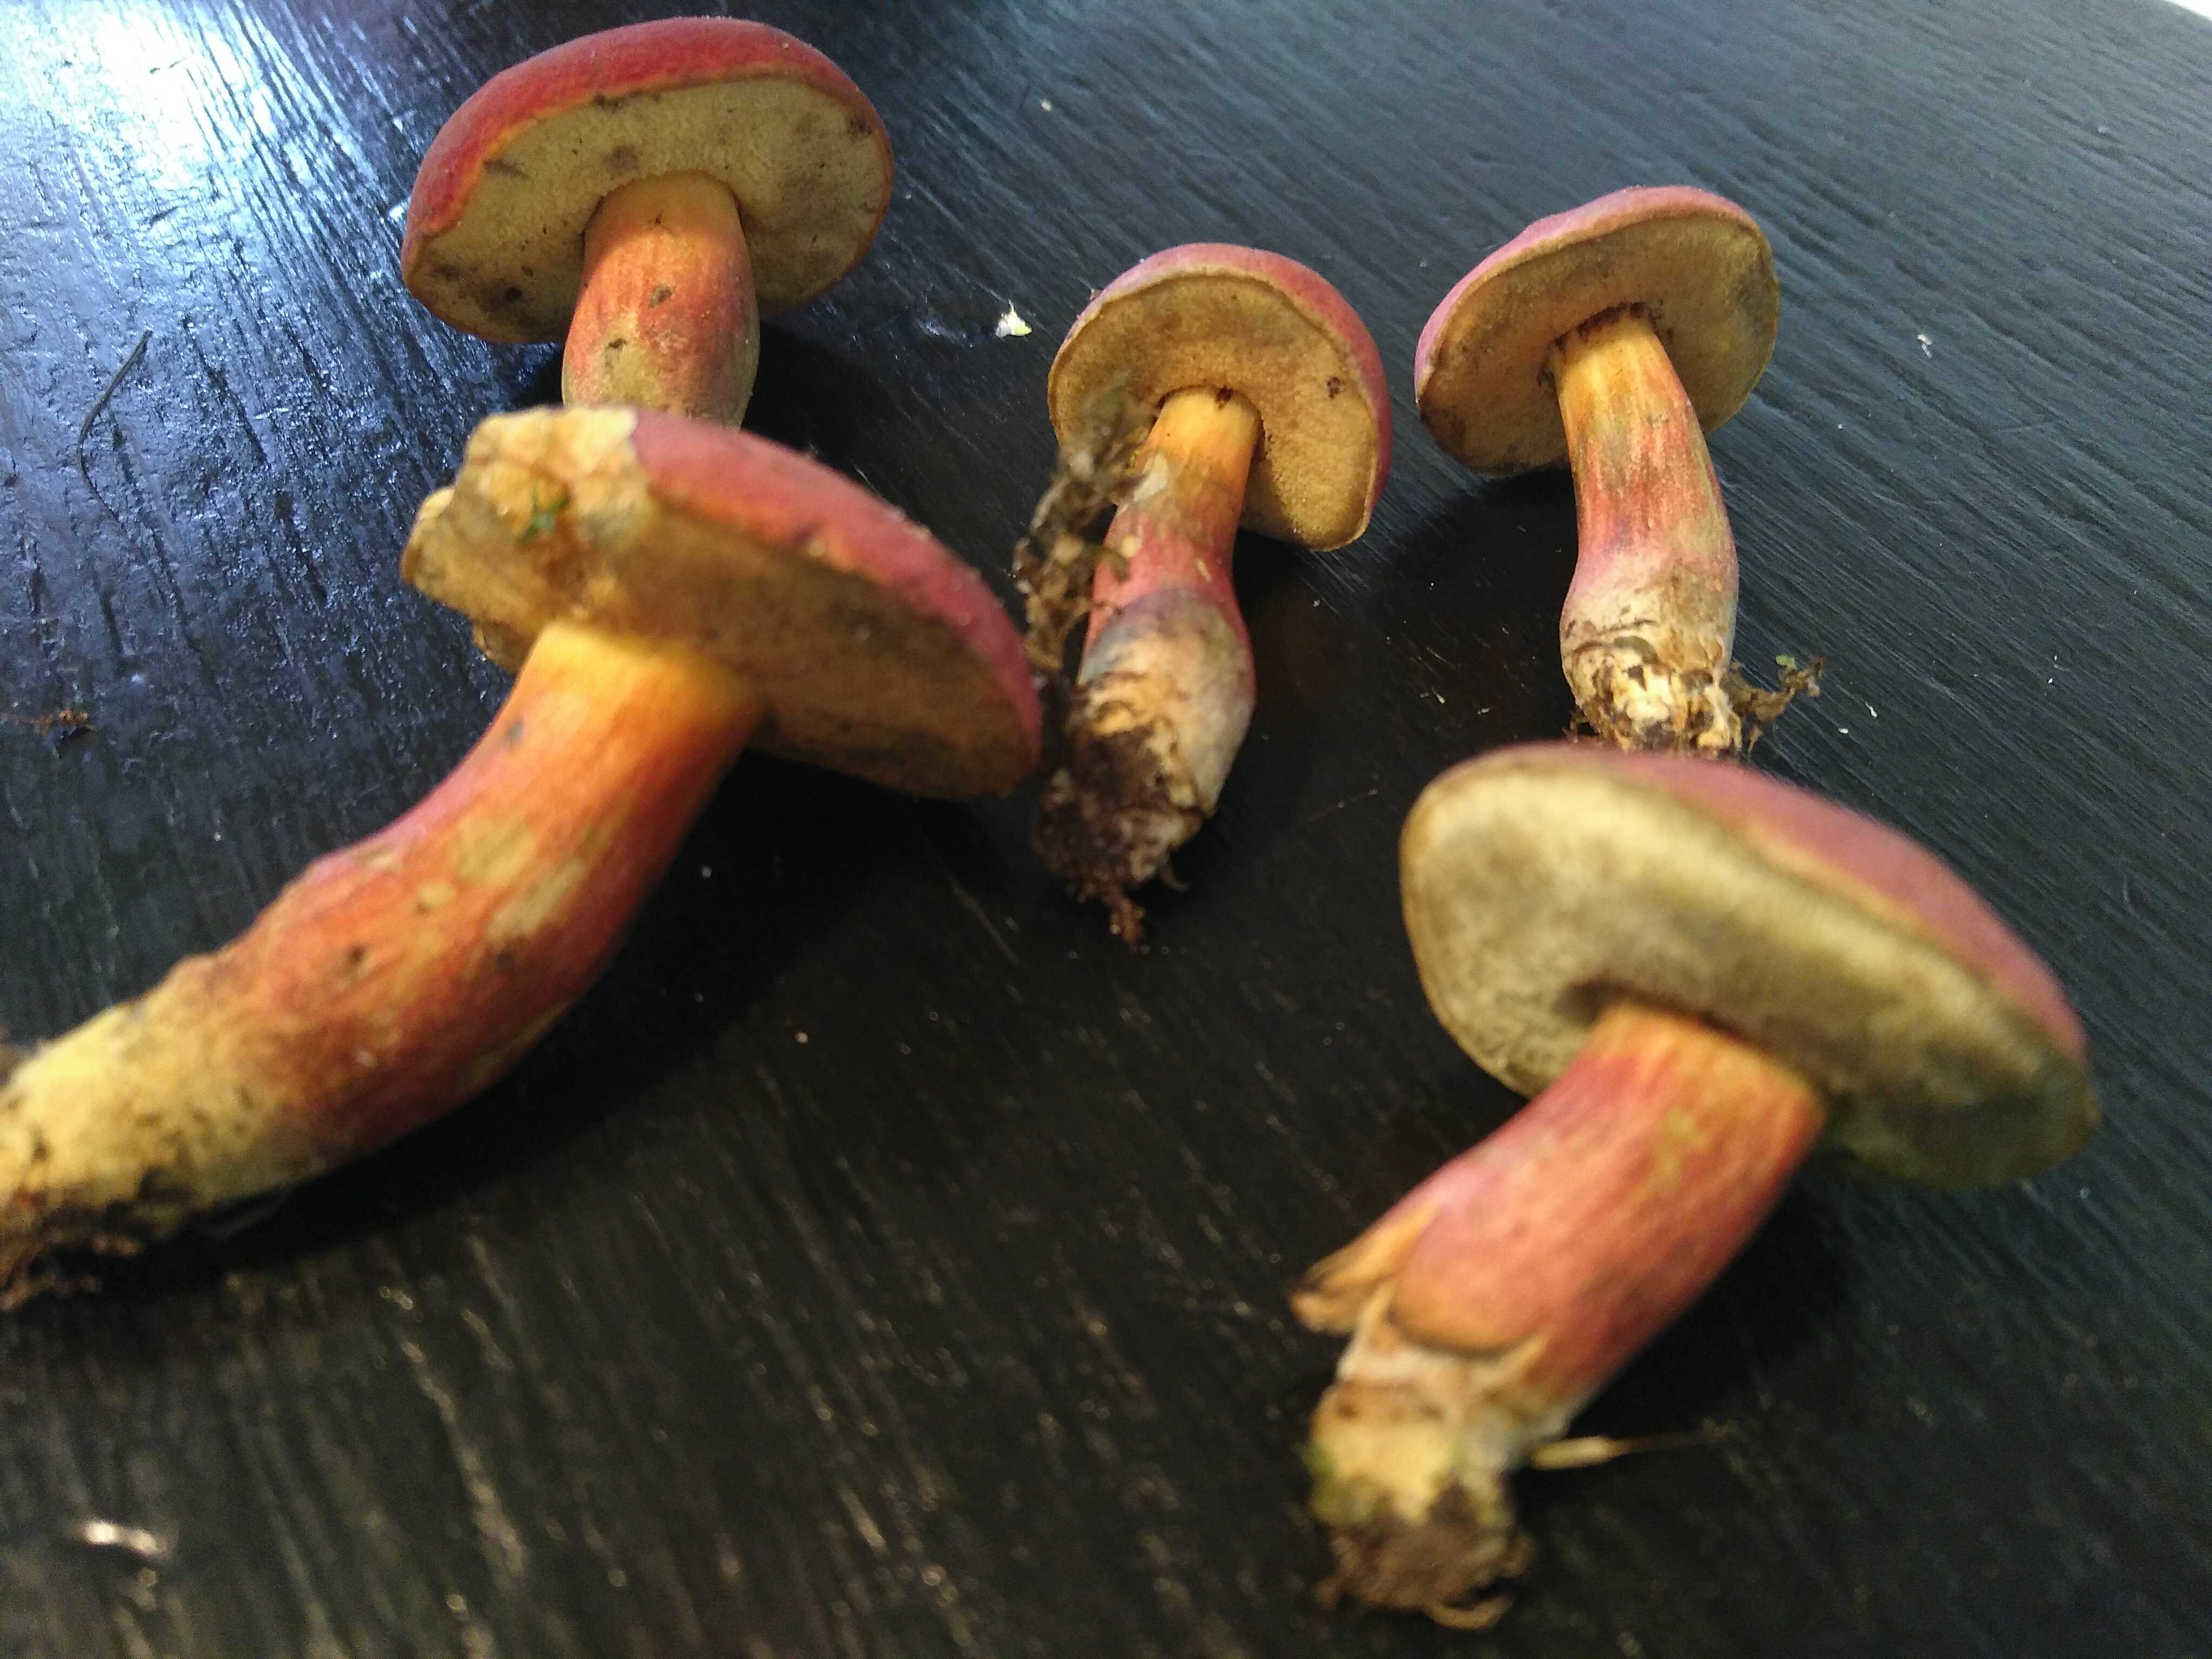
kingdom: Fungi
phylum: Basidiomycota
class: Agaricomycetes
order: Boletales
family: Boletaceae
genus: Hortiboletus
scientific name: Hortiboletus rubellus
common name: blodrød rørhat
